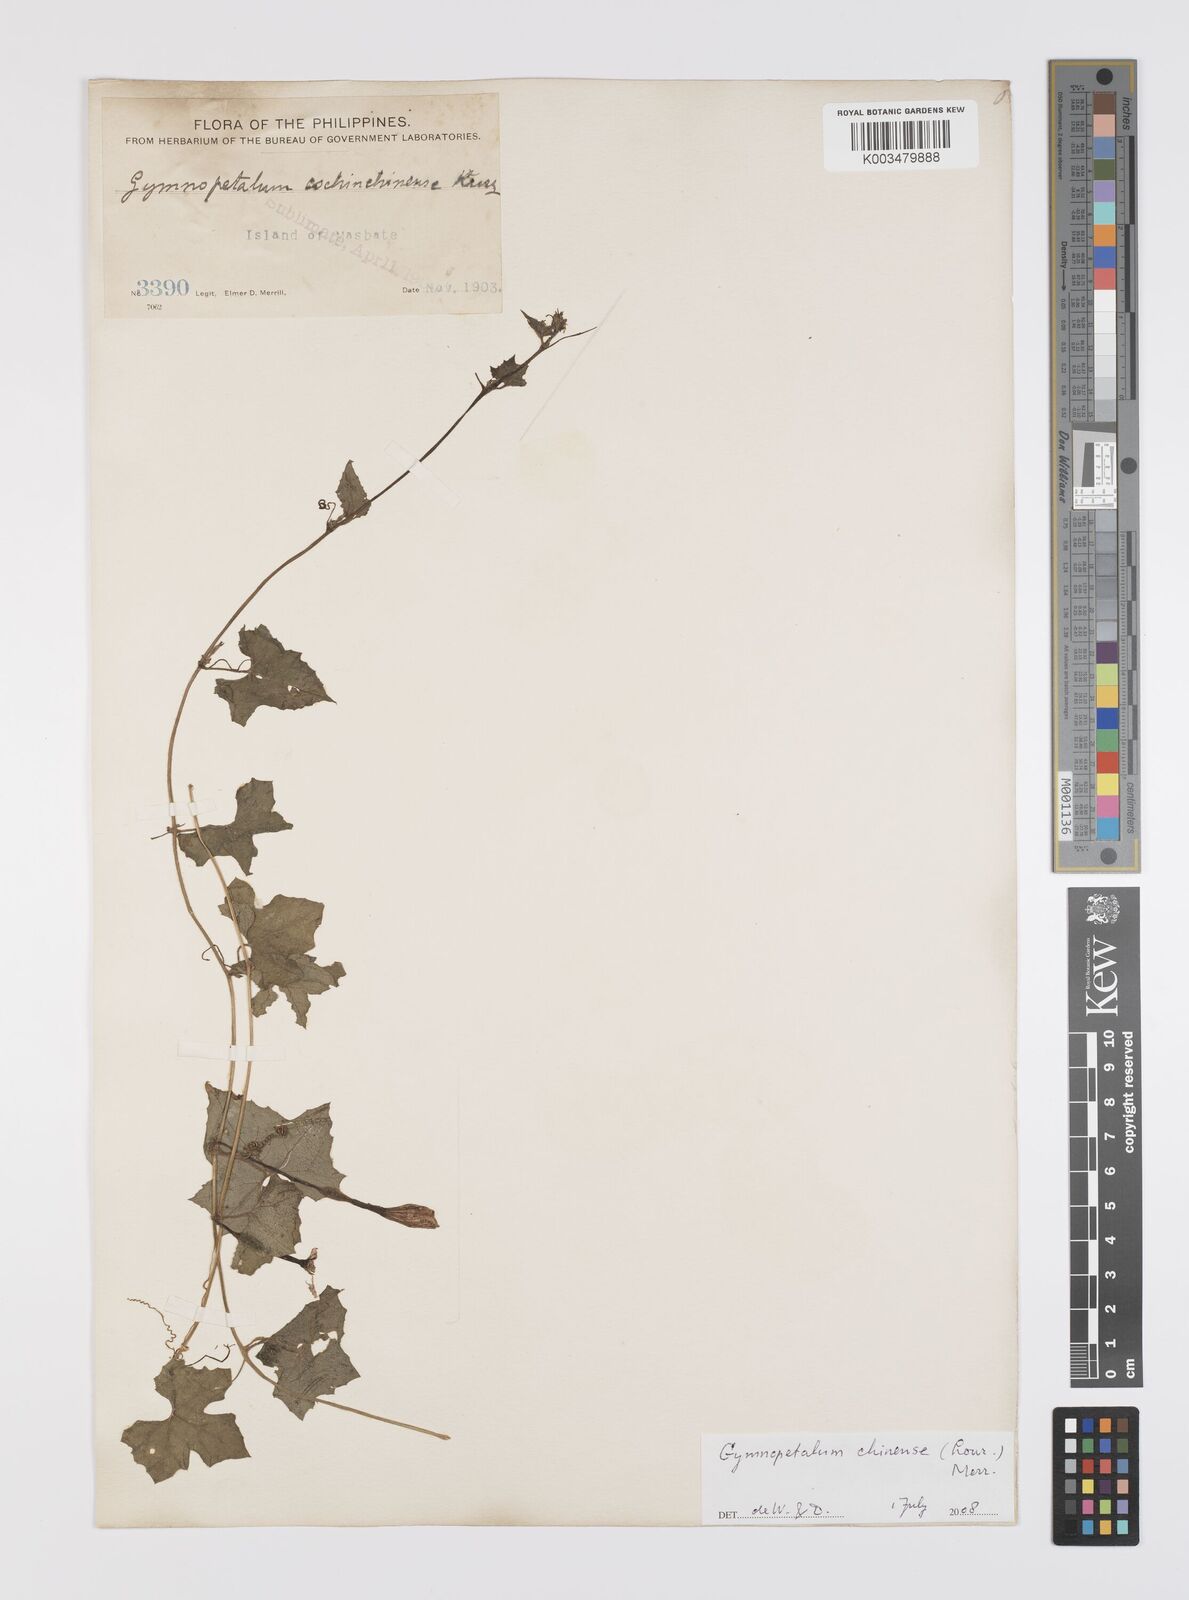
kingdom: Plantae
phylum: Tracheophyta
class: Magnoliopsida
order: Cucurbitales
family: Cucurbitaceae
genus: Trichosanthes
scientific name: Trichosanthes costata
